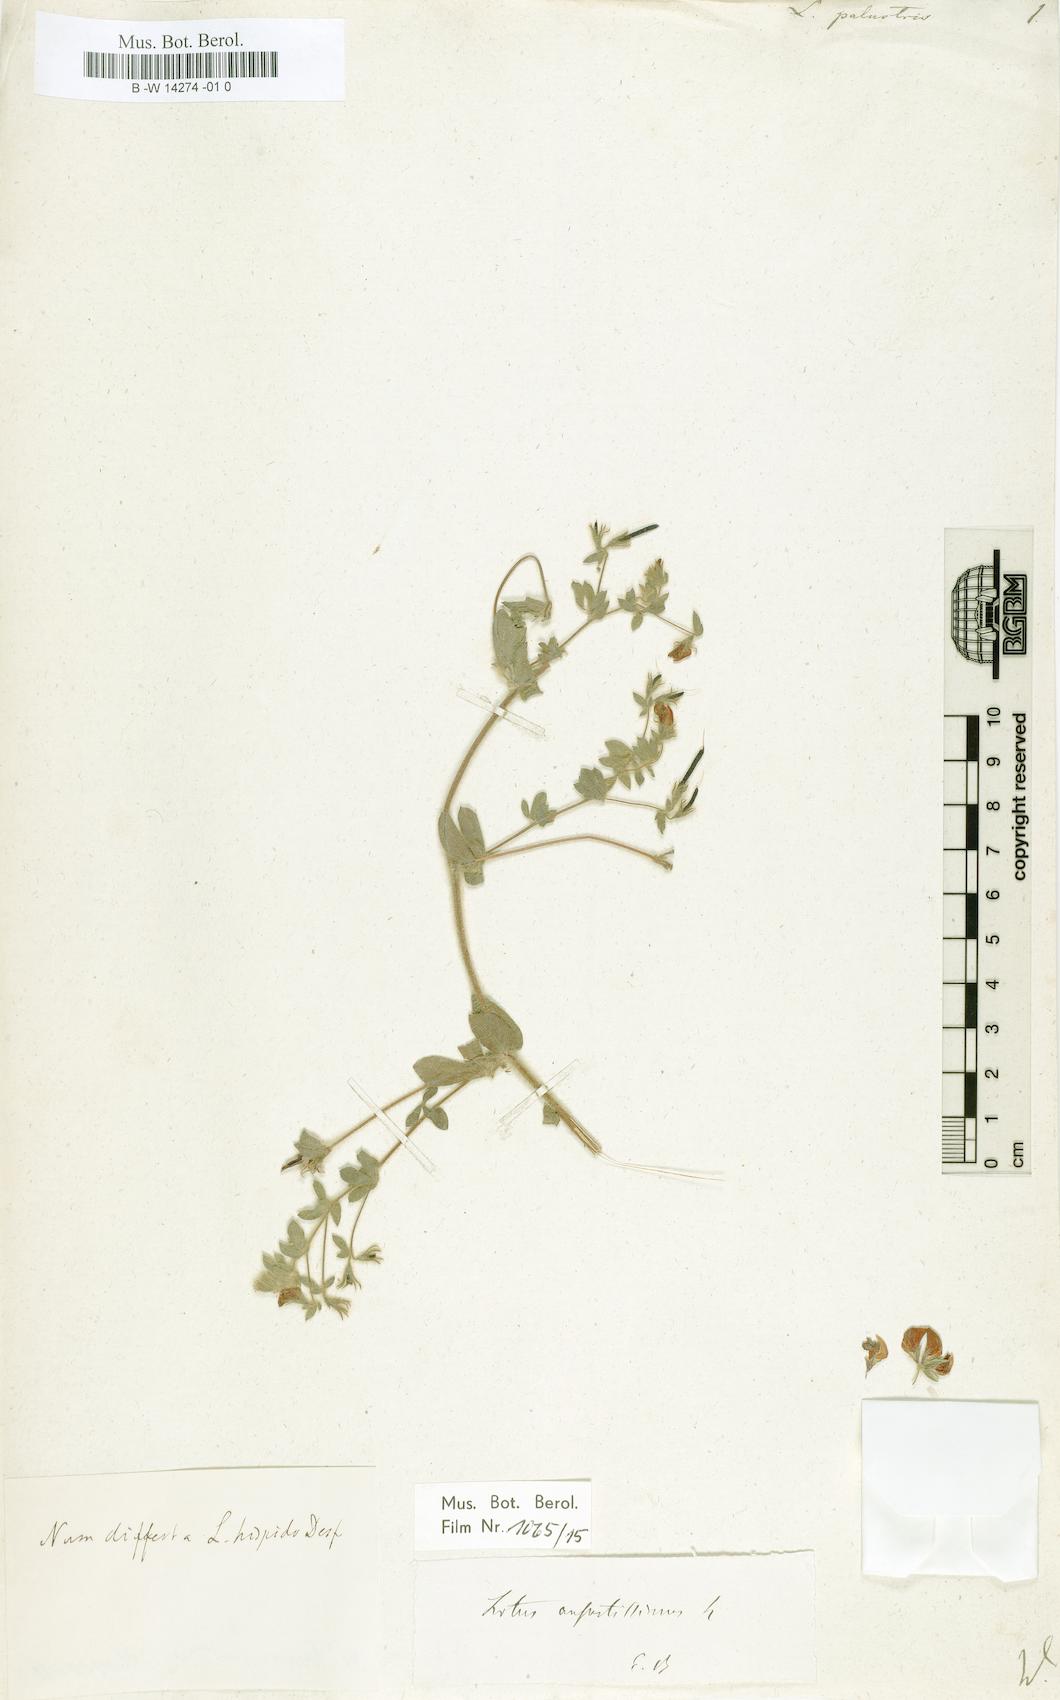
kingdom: Plantae
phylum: Tracheophyta
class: Magnoliopsida
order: Fabales
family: Fabaceae
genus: Lotus
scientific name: Lotus palustris
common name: Large birds-foot trefoil
